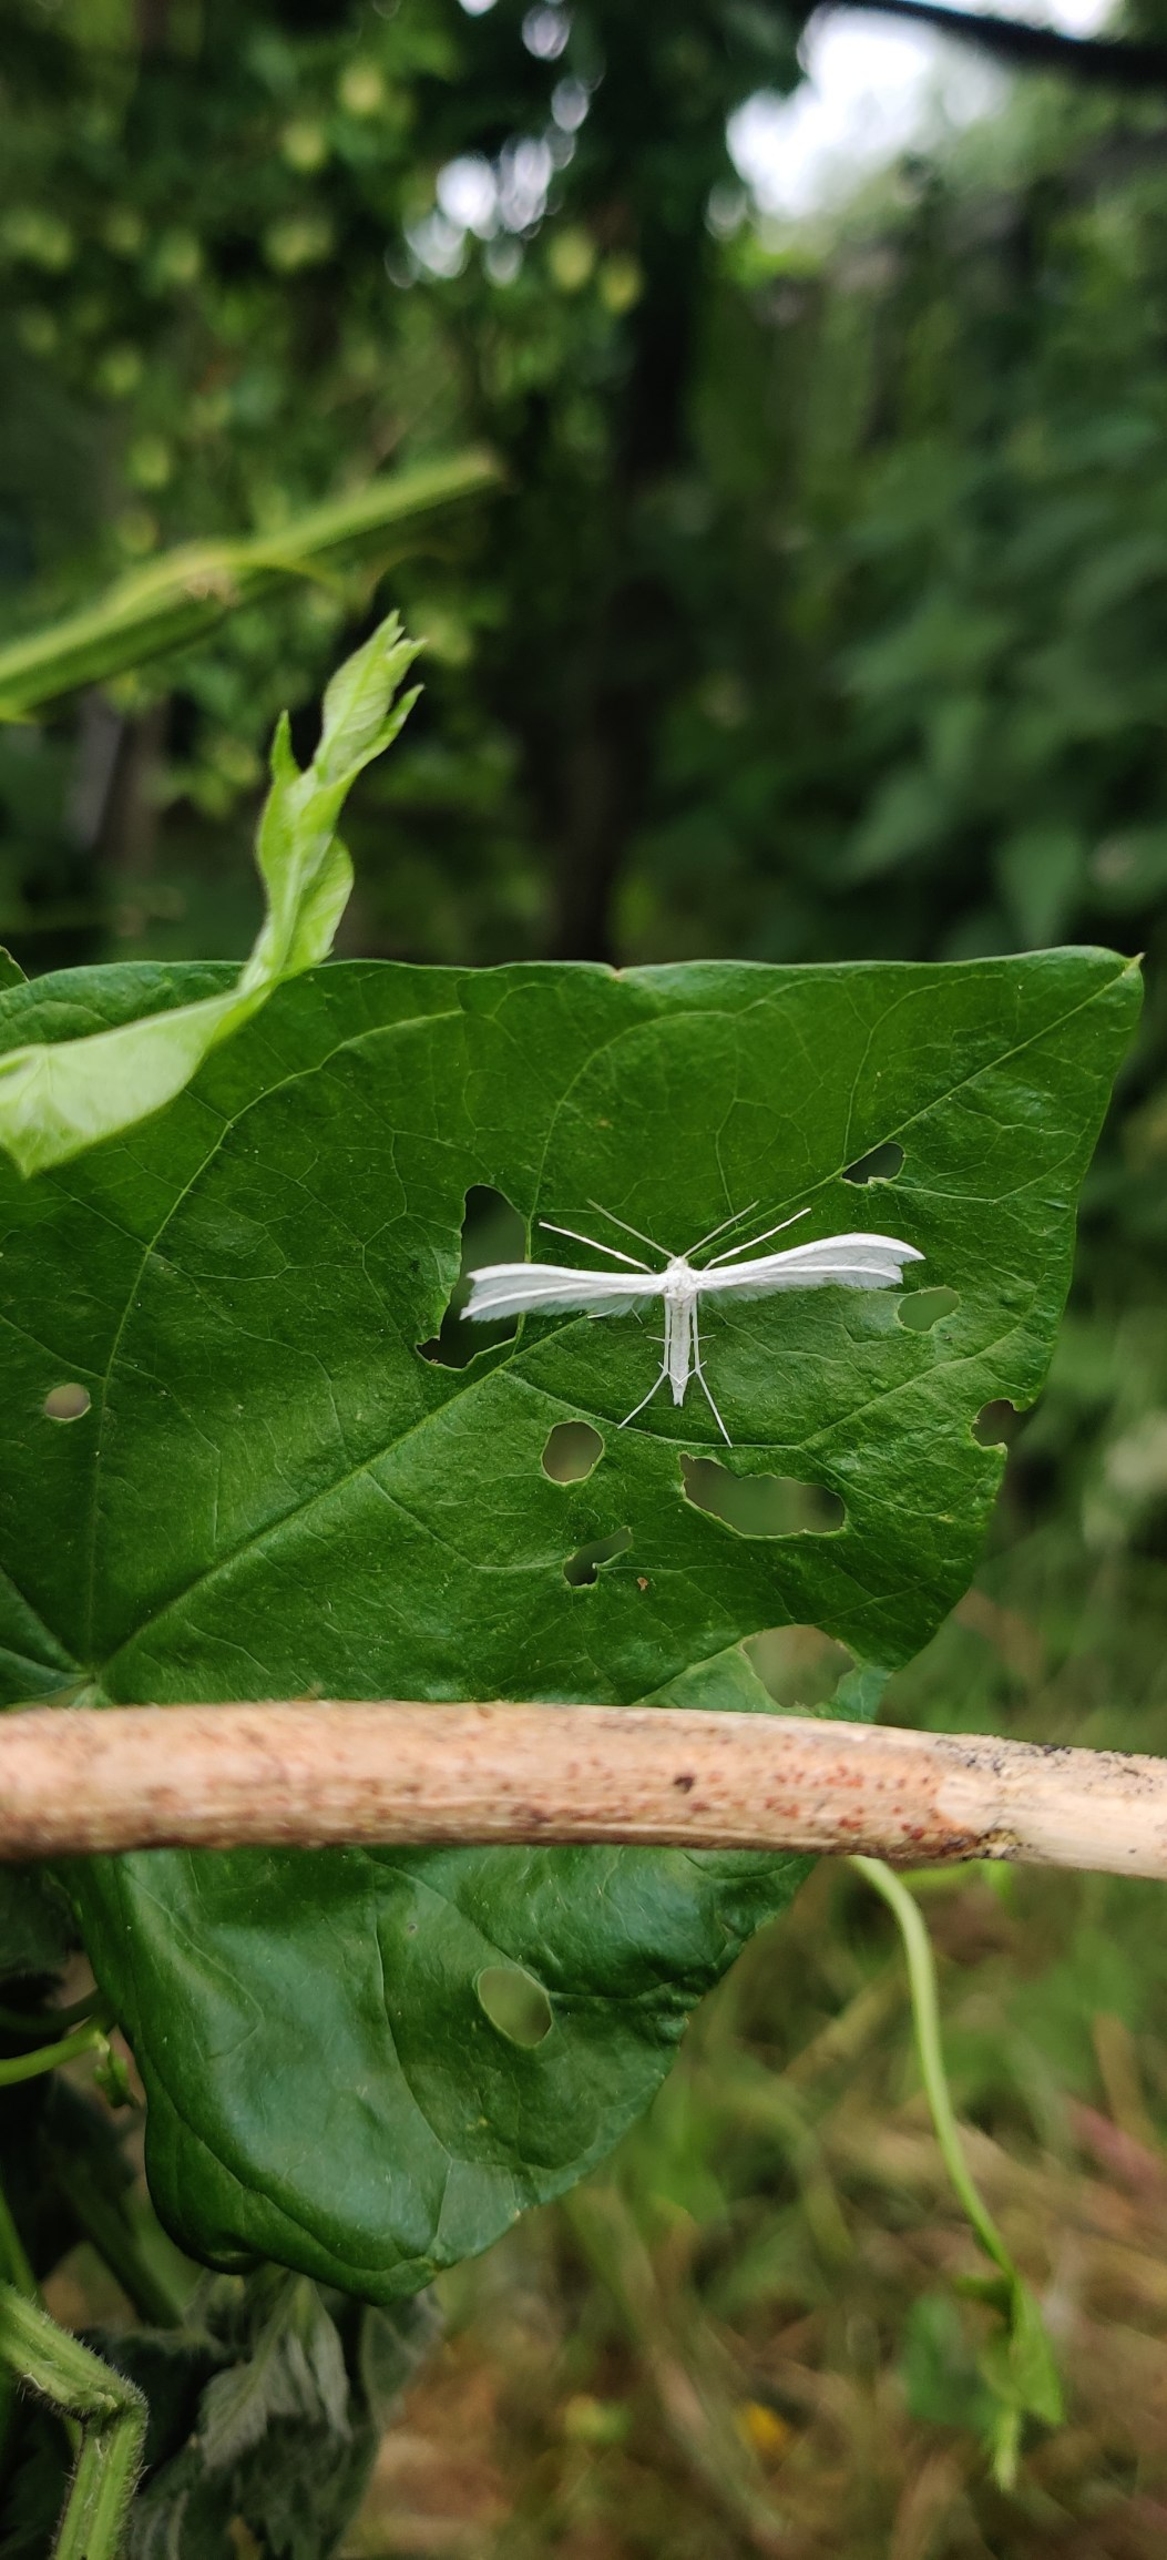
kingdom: Animalia
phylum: Arthropoda
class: Insecta
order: Lepidoptera
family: Pterophoridae
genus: Pterophorus
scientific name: Pterophorus pentadactyla
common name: Hvidt fjermøl
